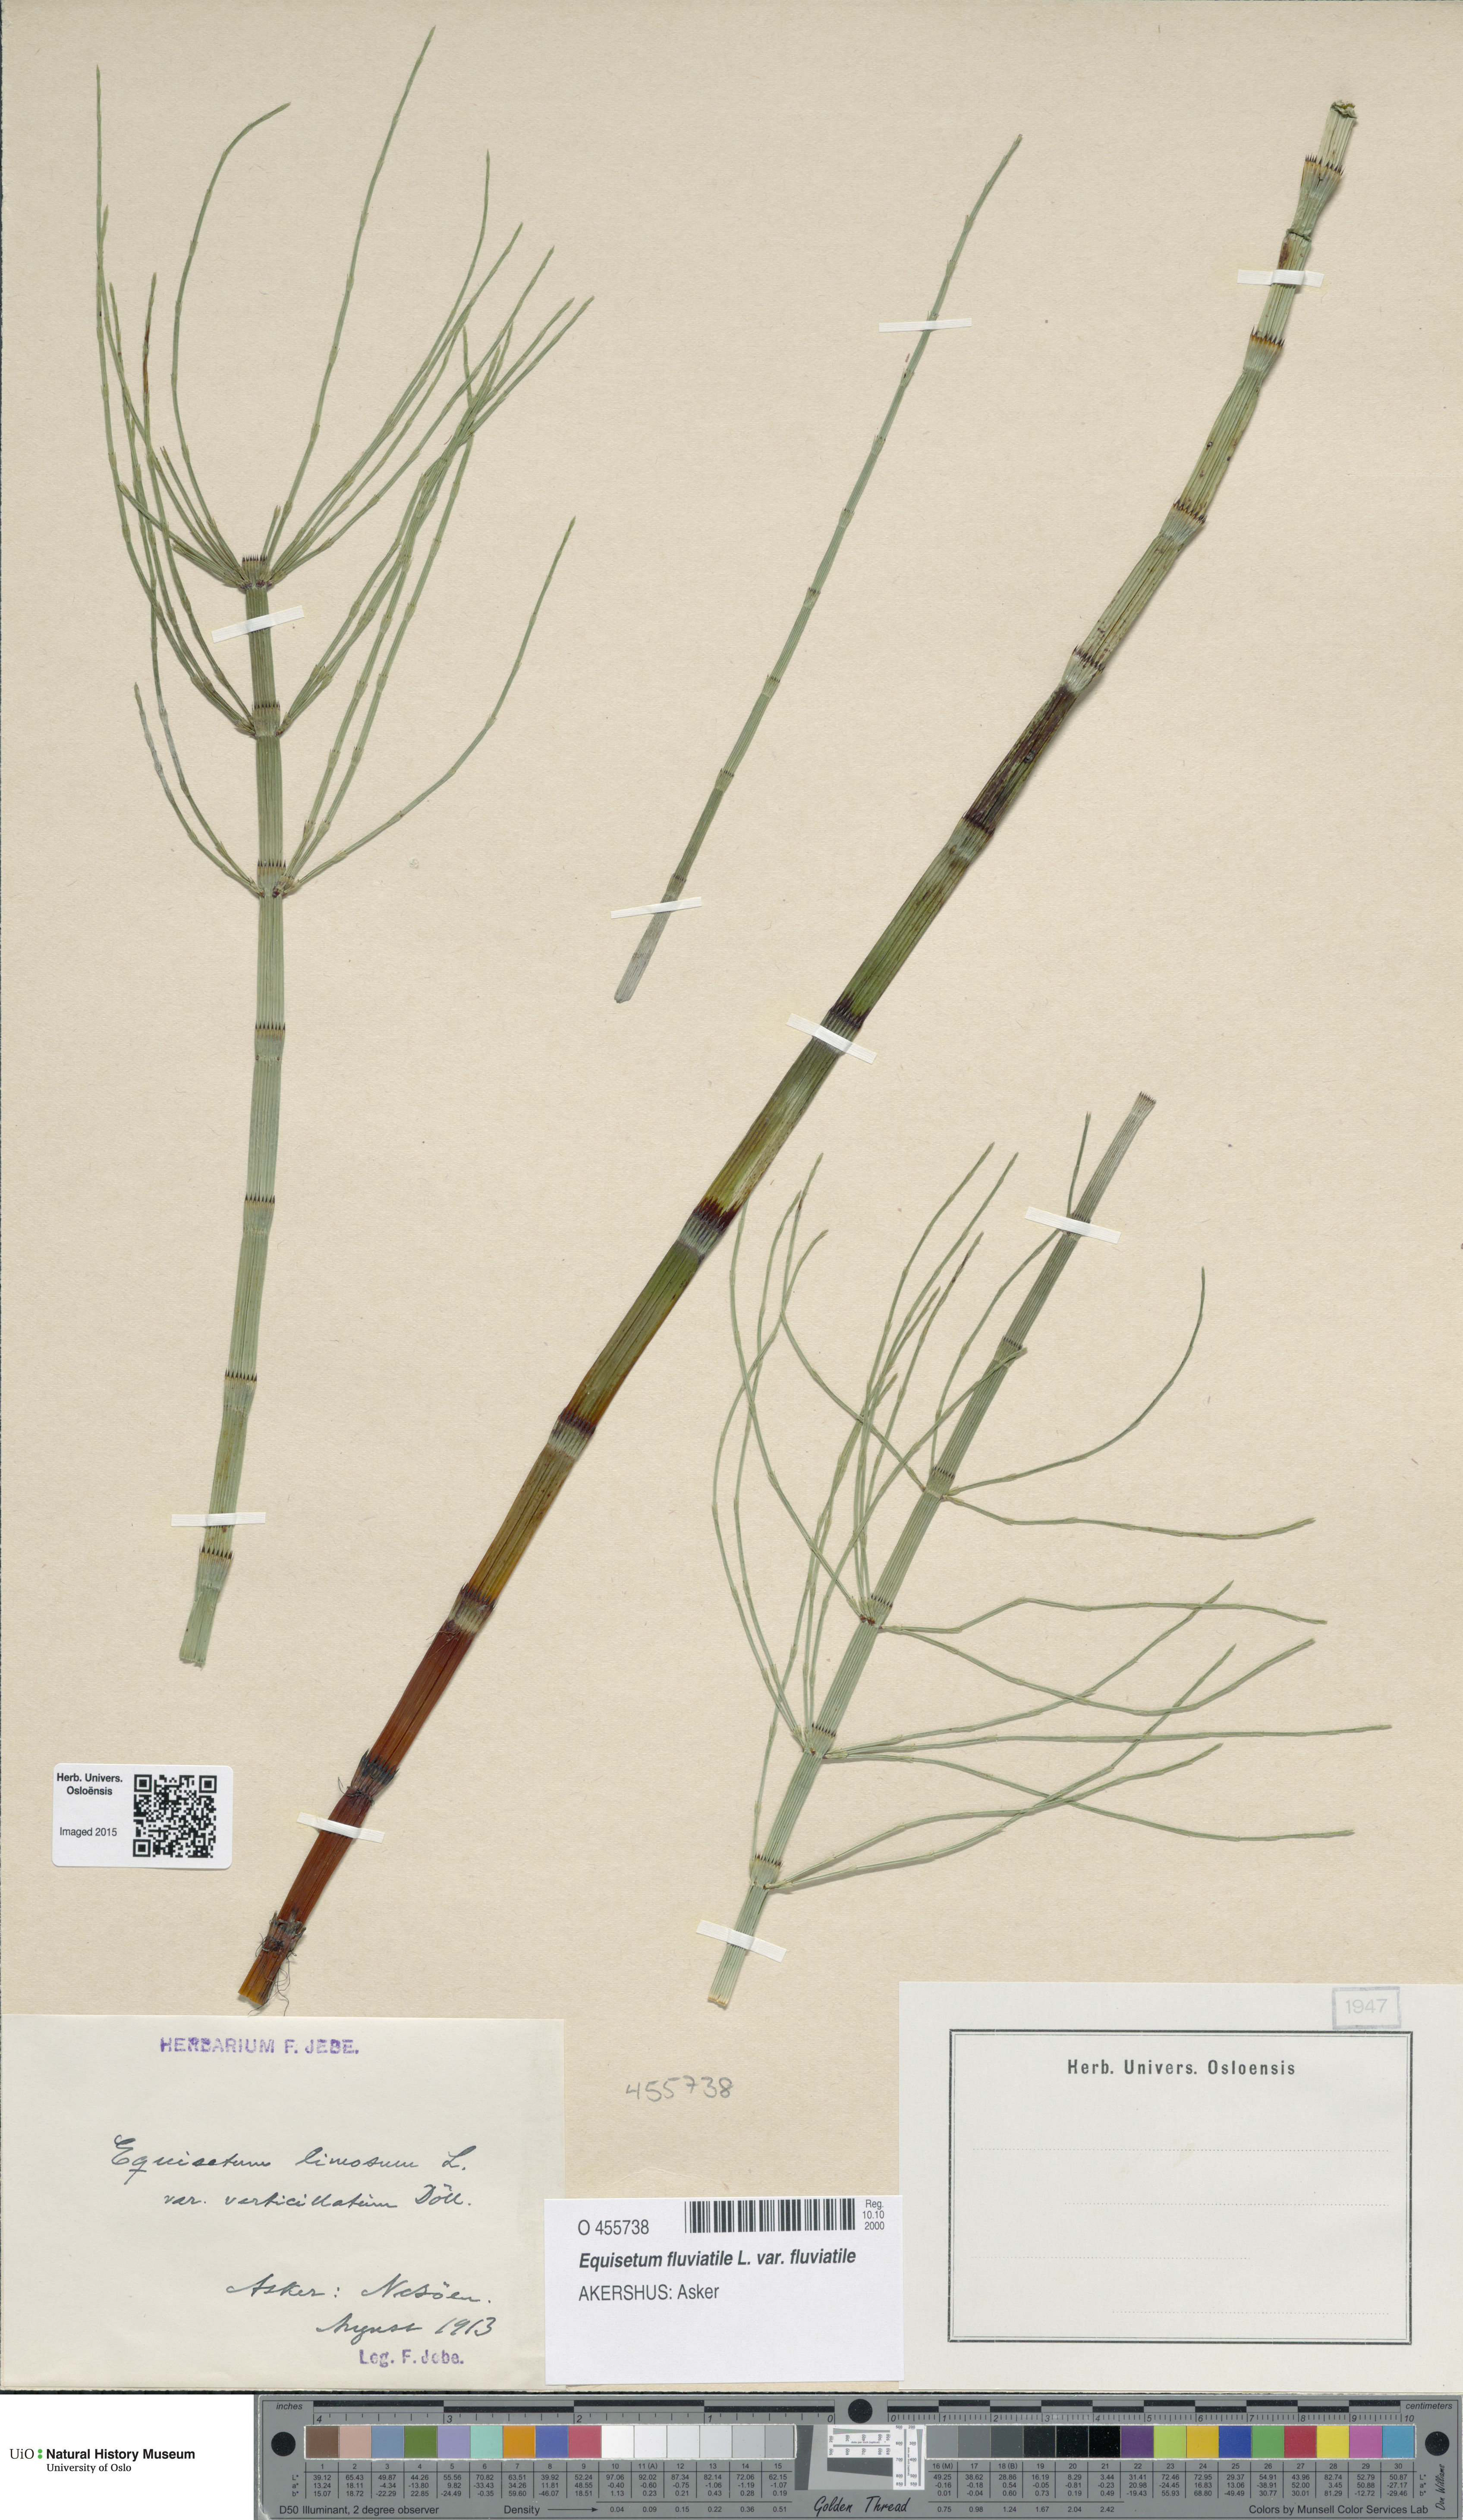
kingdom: Plantae
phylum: Tracheophyta
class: Polypodiopsida
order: Equisetales
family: Equisetaceae
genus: Equisetum
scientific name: Equisetum fluviatile
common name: Water horsetail
